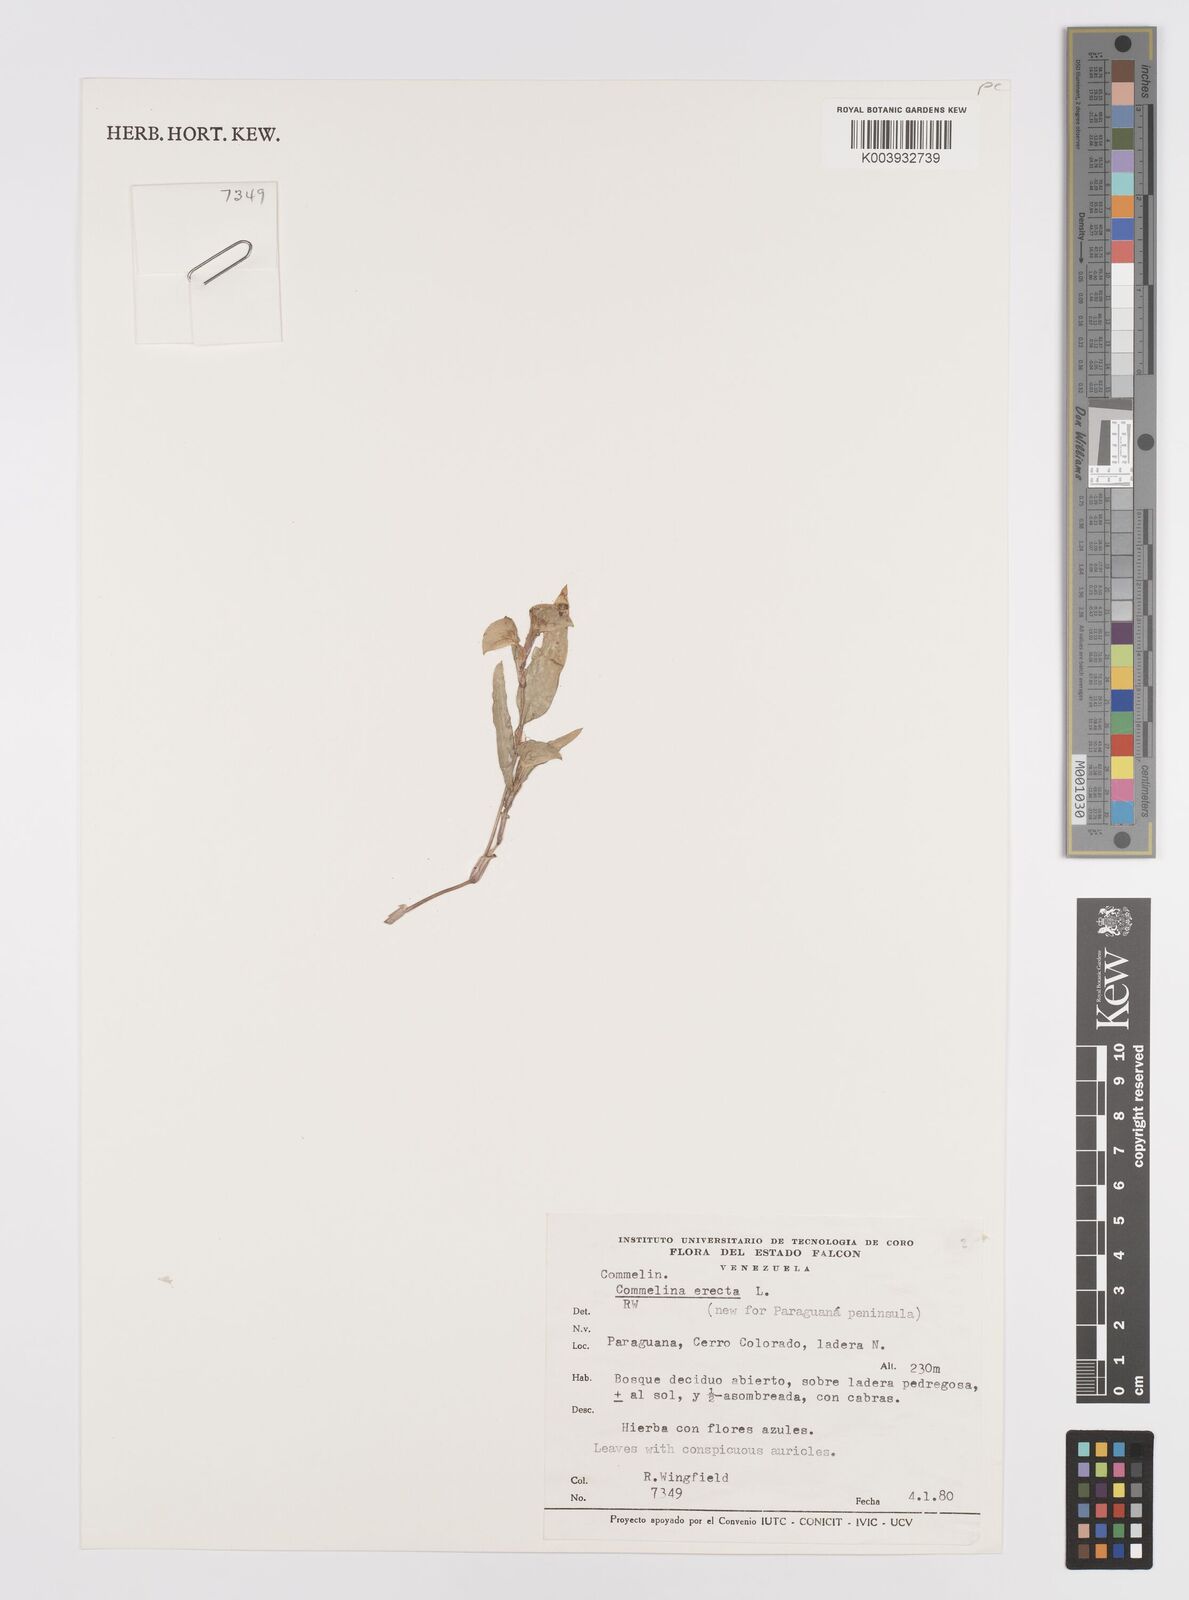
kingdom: Plantae
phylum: Tracheophyta
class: Liliopsida
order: Commelinales
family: Commelinaceae
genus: Commelina
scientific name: Commelina erecta
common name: Blousel blommetjie
